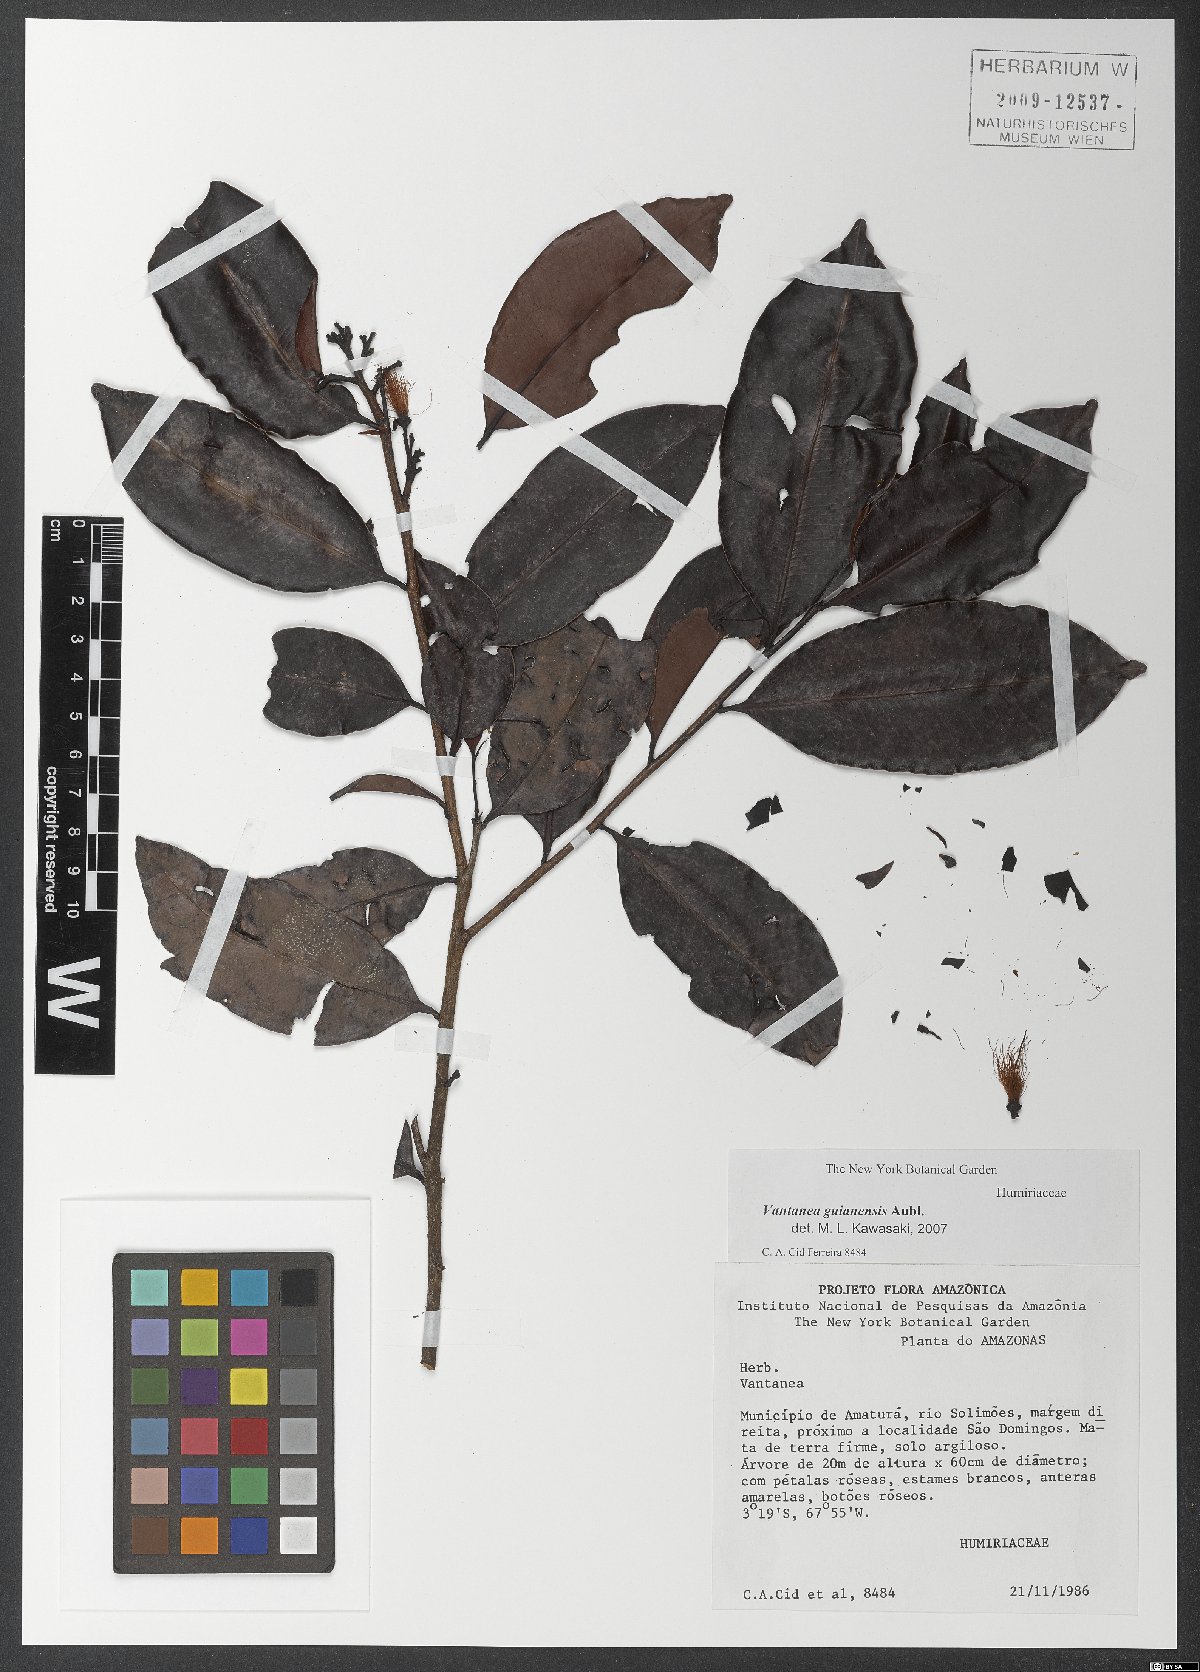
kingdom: Plantae
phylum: Tracheophyta
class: Magnoliopsida
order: Malpighiales
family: Humiriaceae
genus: Vantanea
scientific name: Vantanea guianensis
